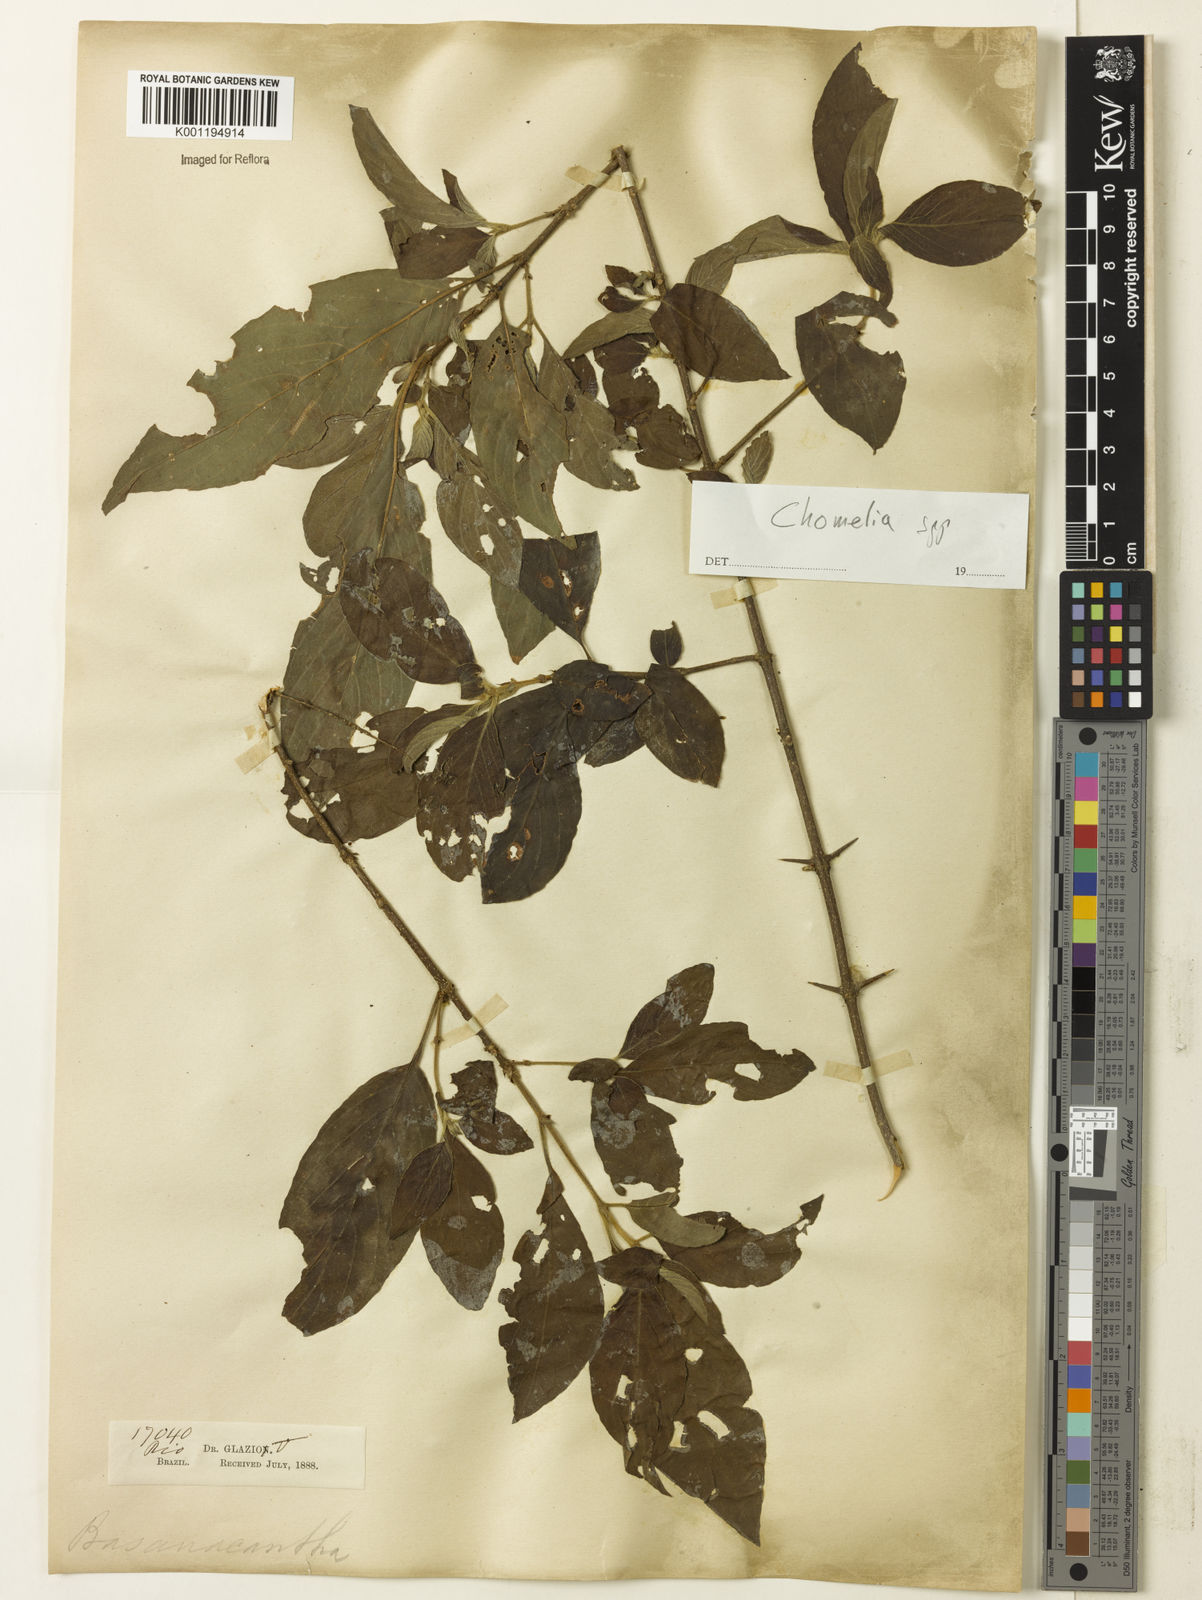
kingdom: Plantae
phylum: Tracheophyta
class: Magnoliopsida
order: Gentianales
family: Rubiaceae
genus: Chomelia
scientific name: Chomelia
